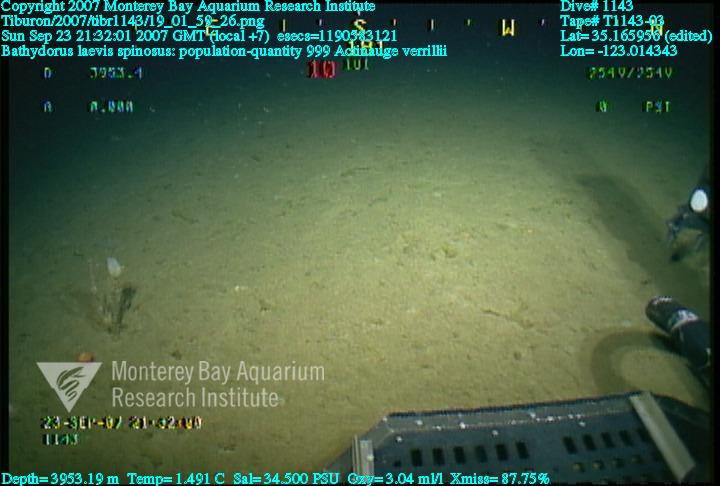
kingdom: Animalia
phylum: Porifera
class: Hexactinellida
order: Lyssacinosida
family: Rossellidae
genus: Bathydorus
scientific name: Bathydorus spinosus
